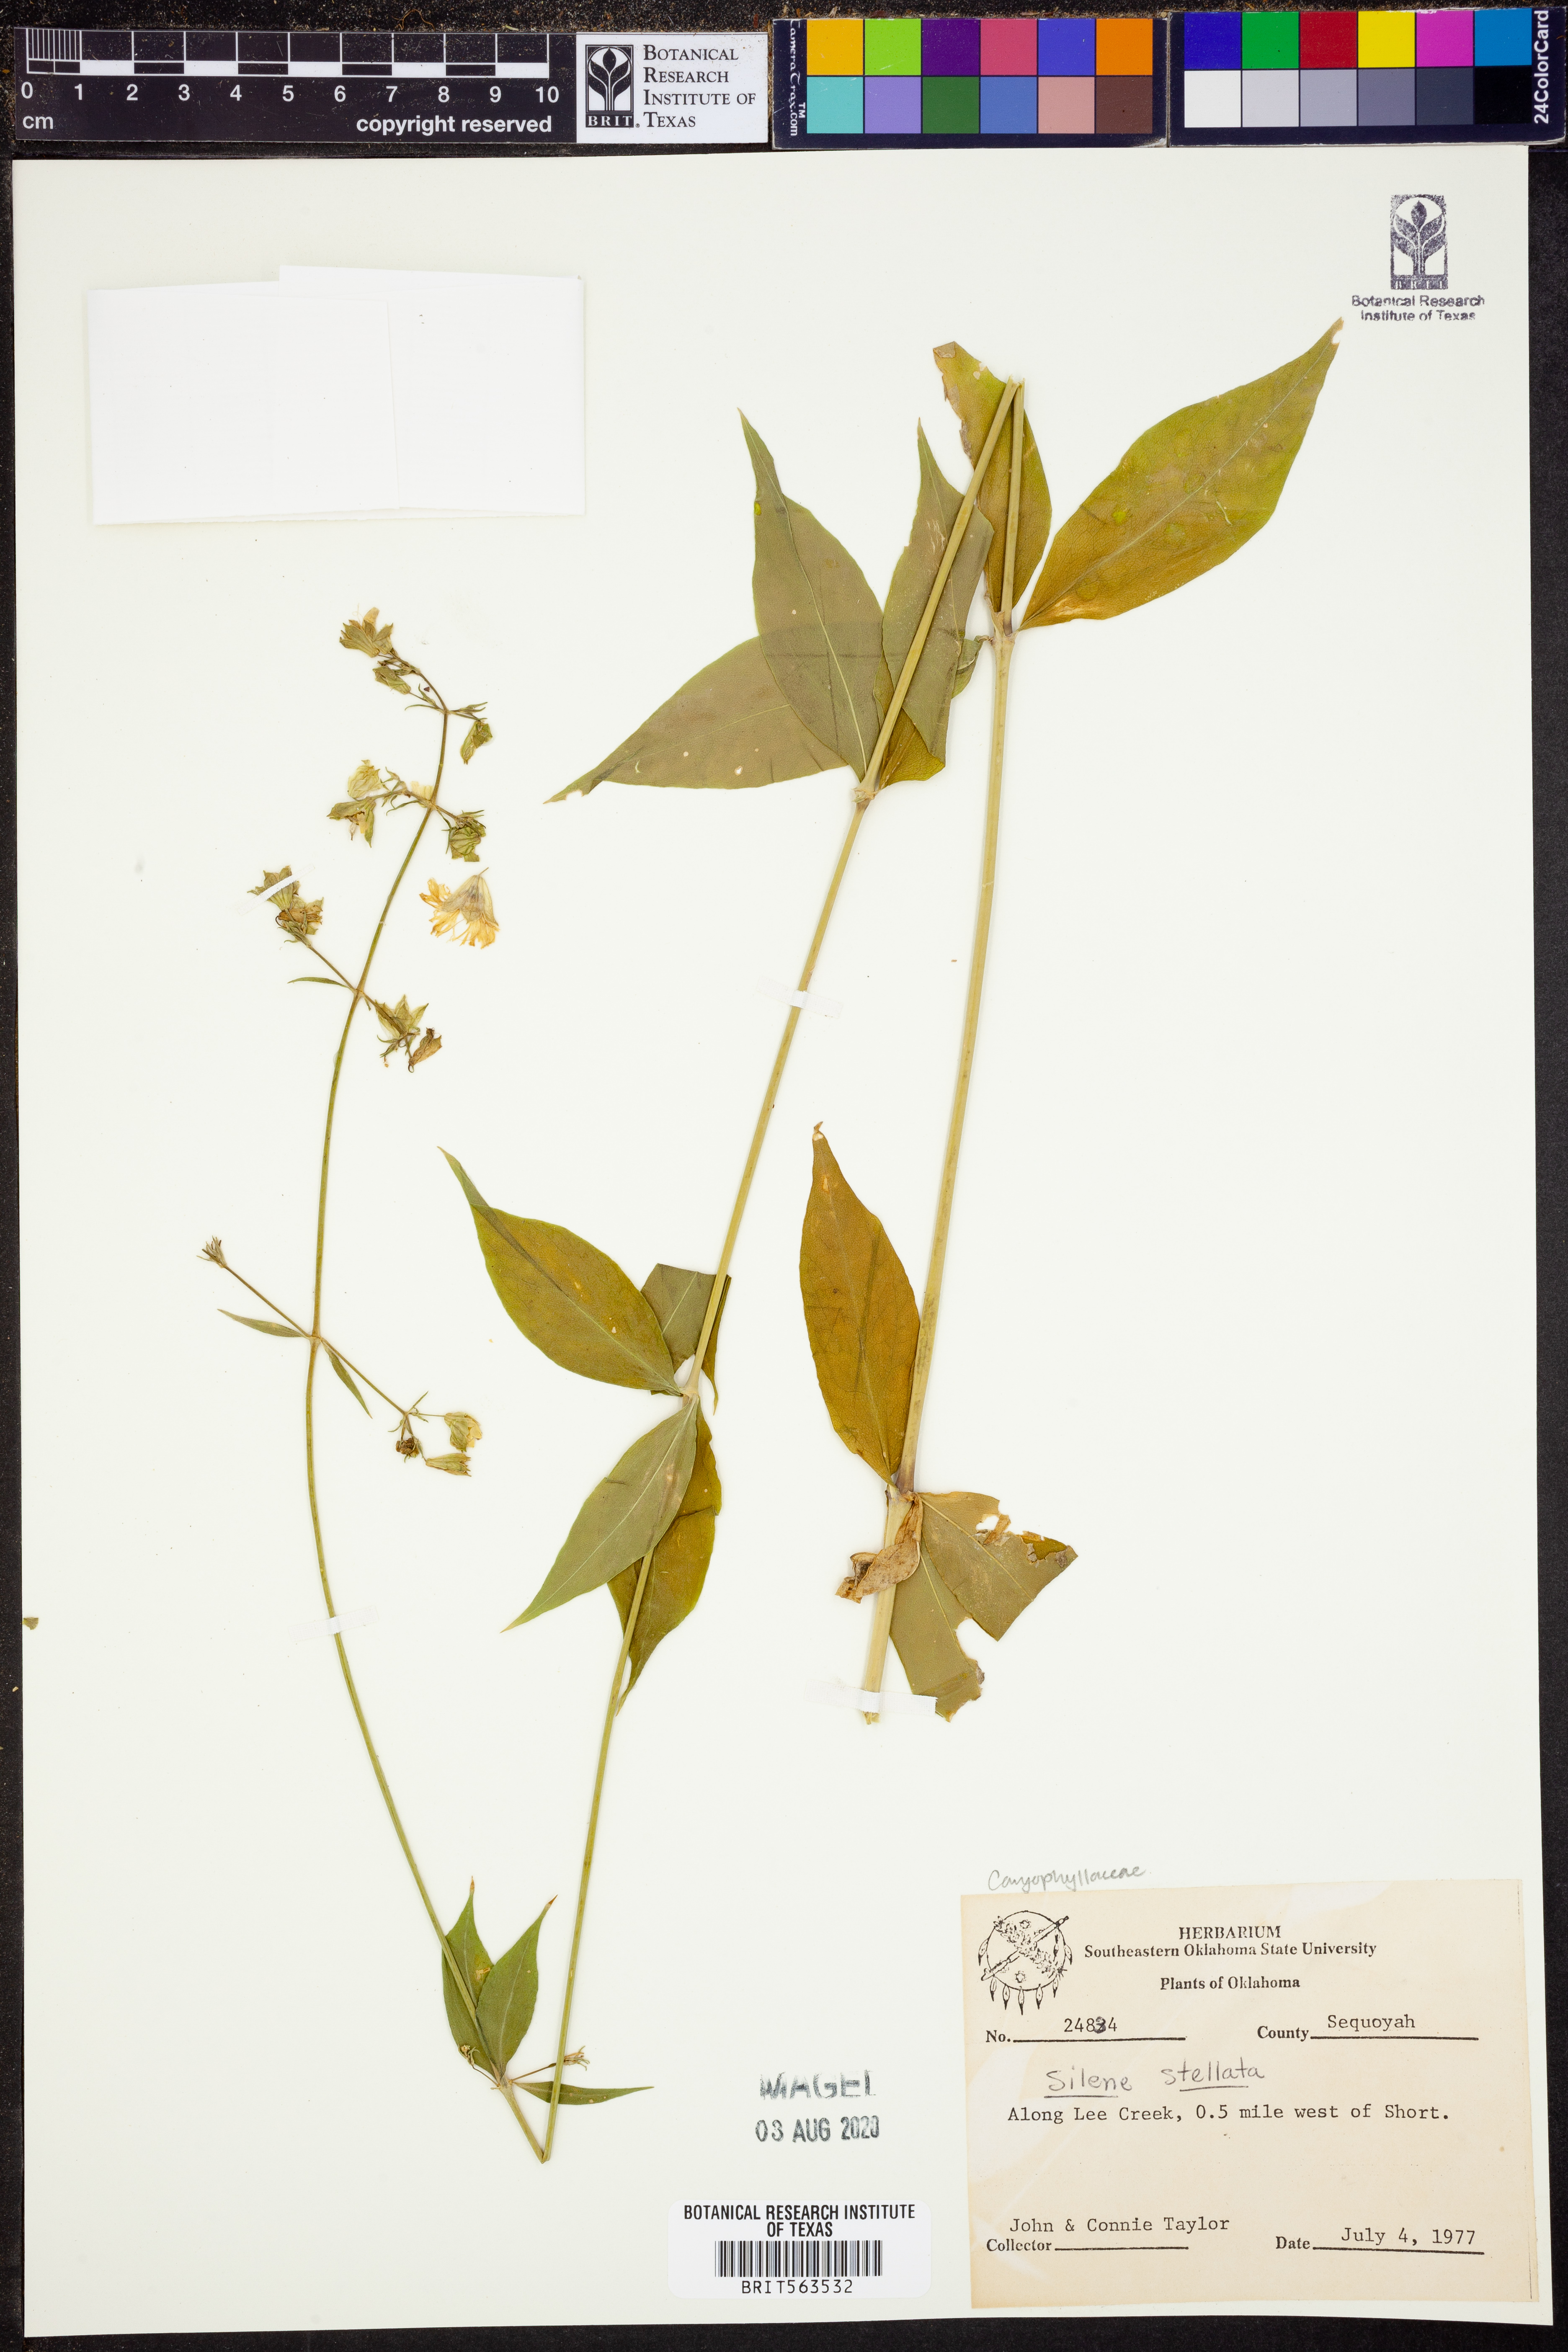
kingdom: Plantae
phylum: Tracheophyta
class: Magnoliopsida
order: Caryophyllales
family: Caryophyllaceae
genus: Silene
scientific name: Silene stellata
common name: Starry campion
